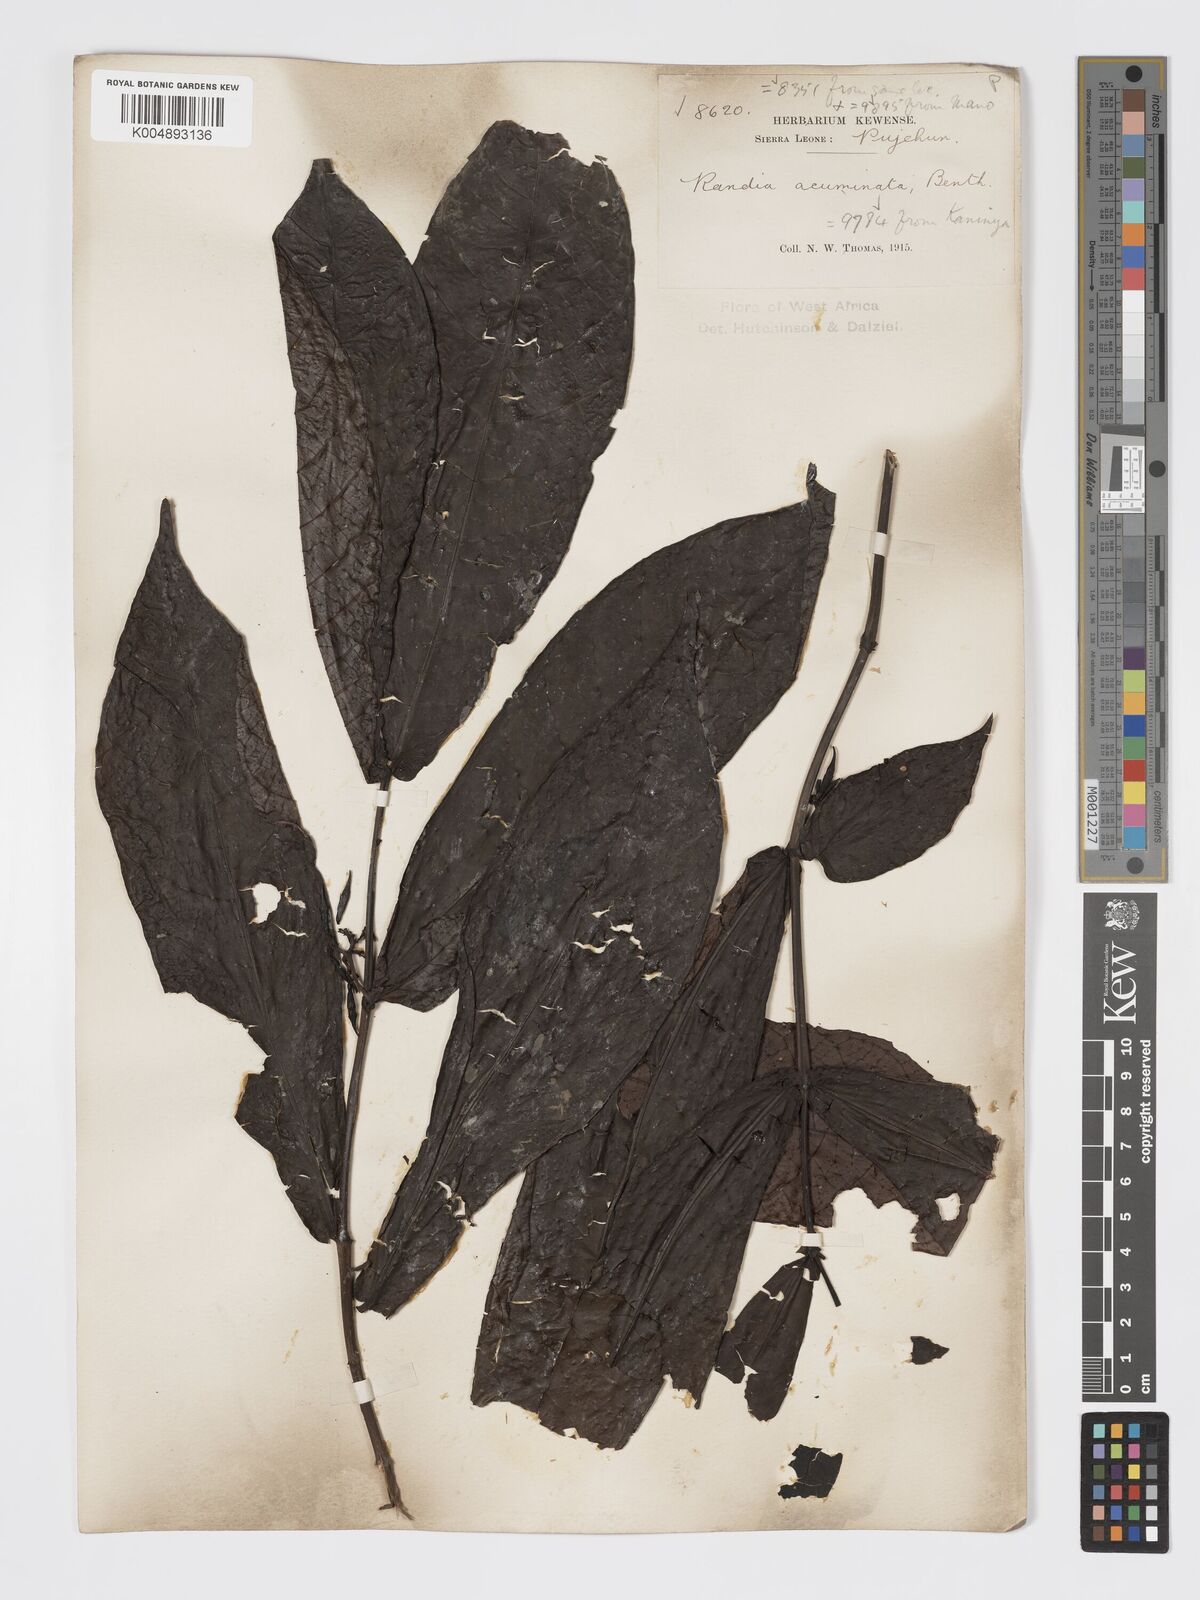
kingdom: Plantae
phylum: Tracheophyta
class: Magnoliopsida
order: Gentianales
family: Rubiaceae
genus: Massularia
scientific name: Massularia acuminata
